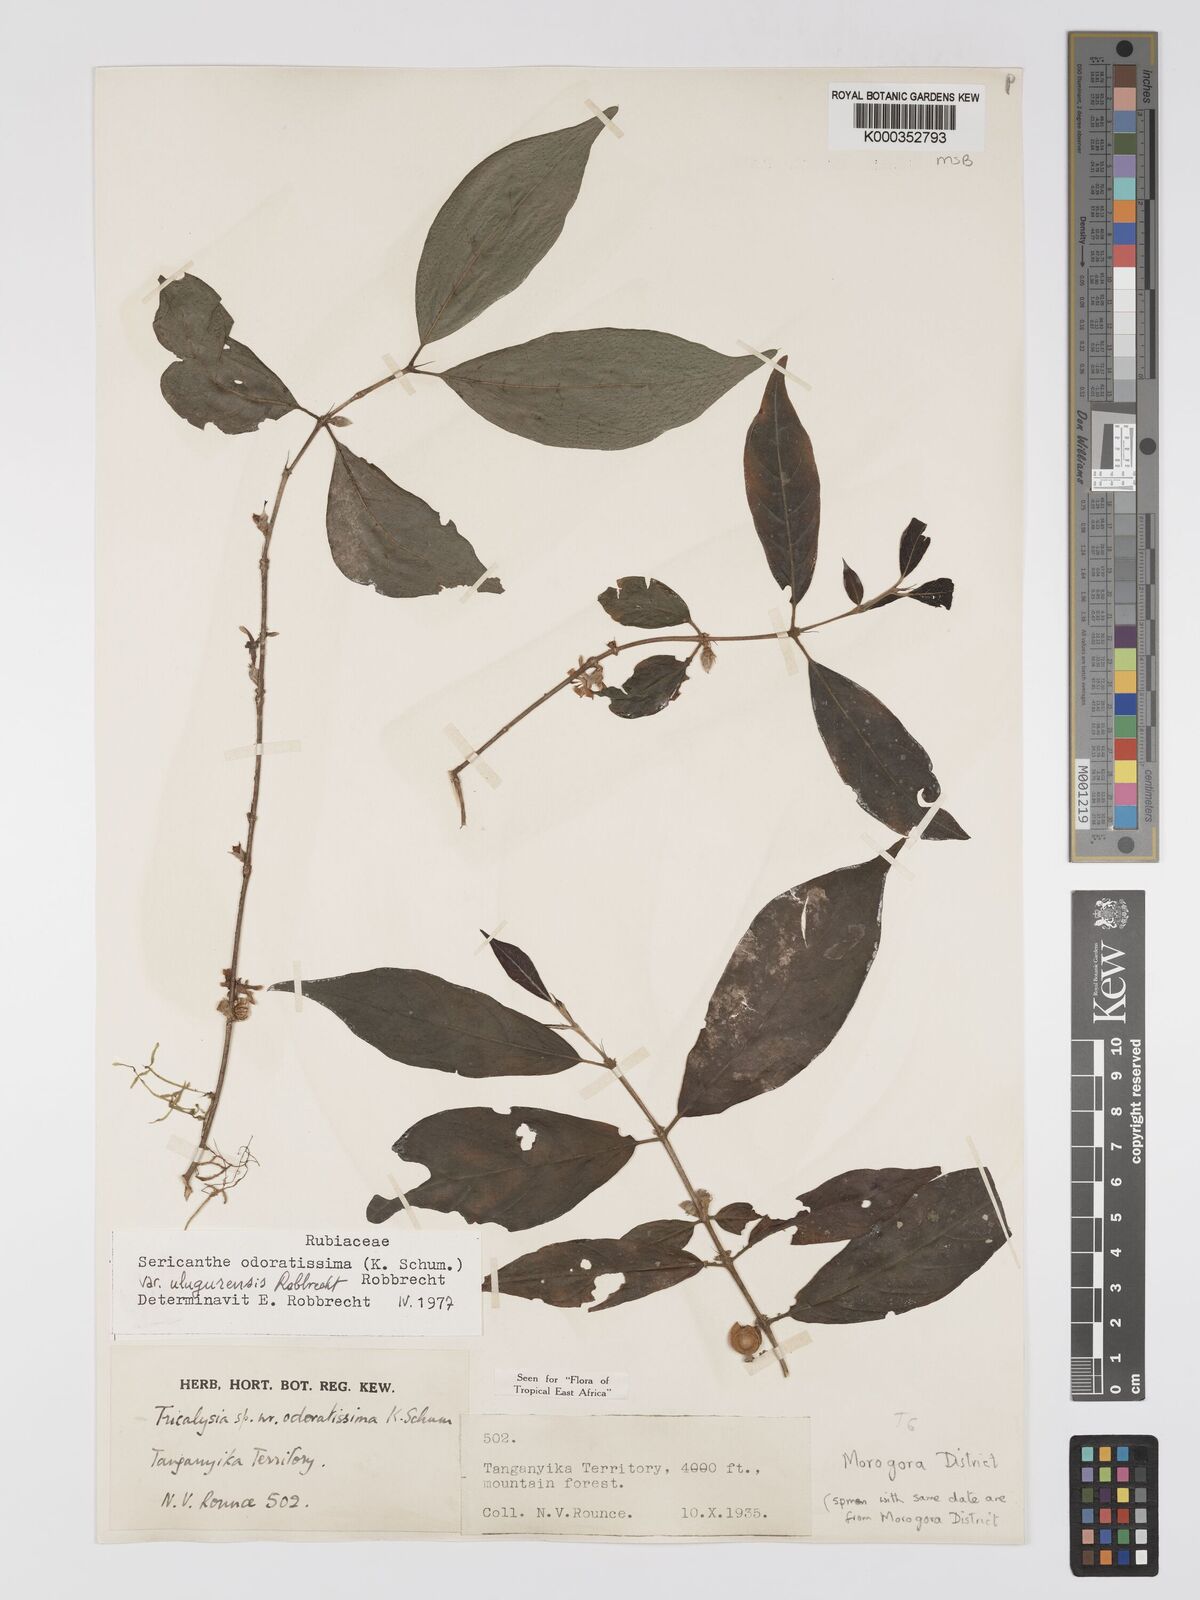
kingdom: Plantae
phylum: Tracheophyta
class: Magnoliopsida
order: Gentianales
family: Rubiaceae
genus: Sericanthe
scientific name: Sericanthe odoratissima
